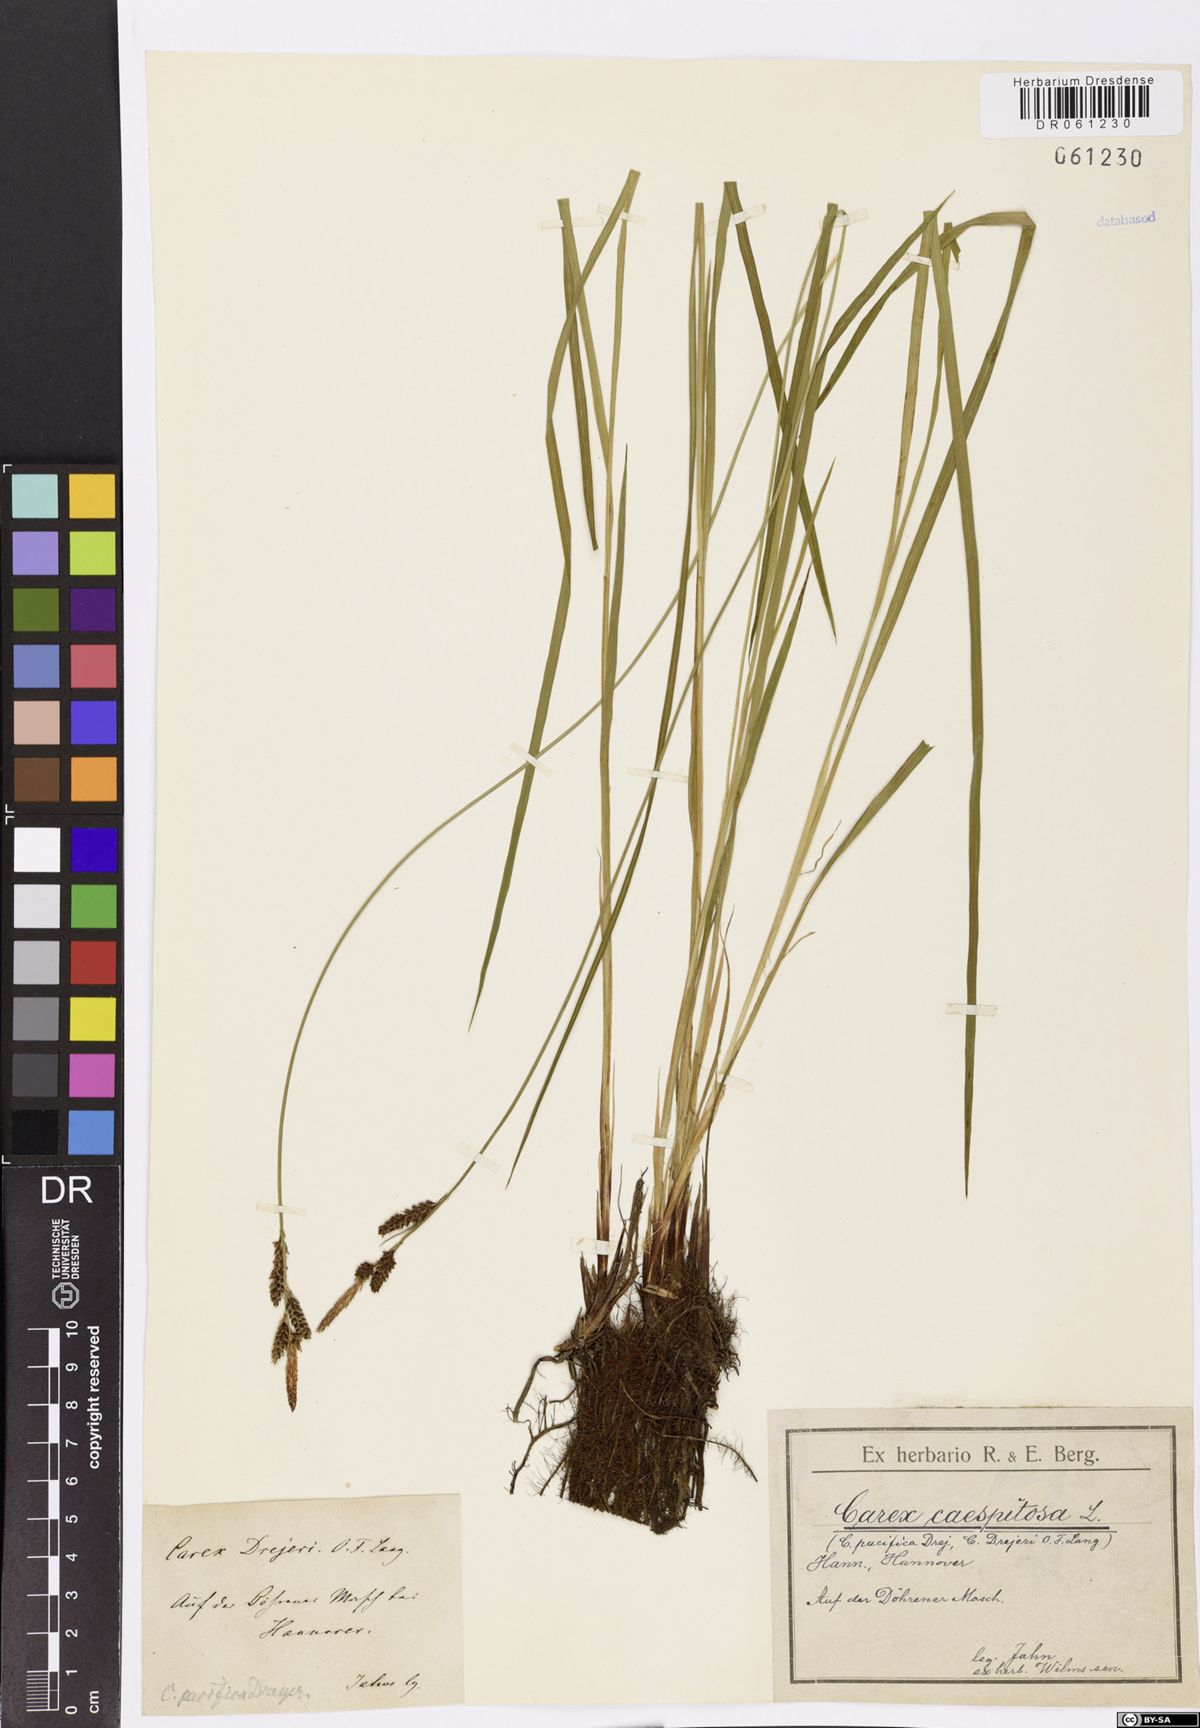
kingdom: Plantae
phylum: Tracheophyta
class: Liliopsida
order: Poales
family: Cyperaceae
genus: Carex
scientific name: Carex cespitosa
